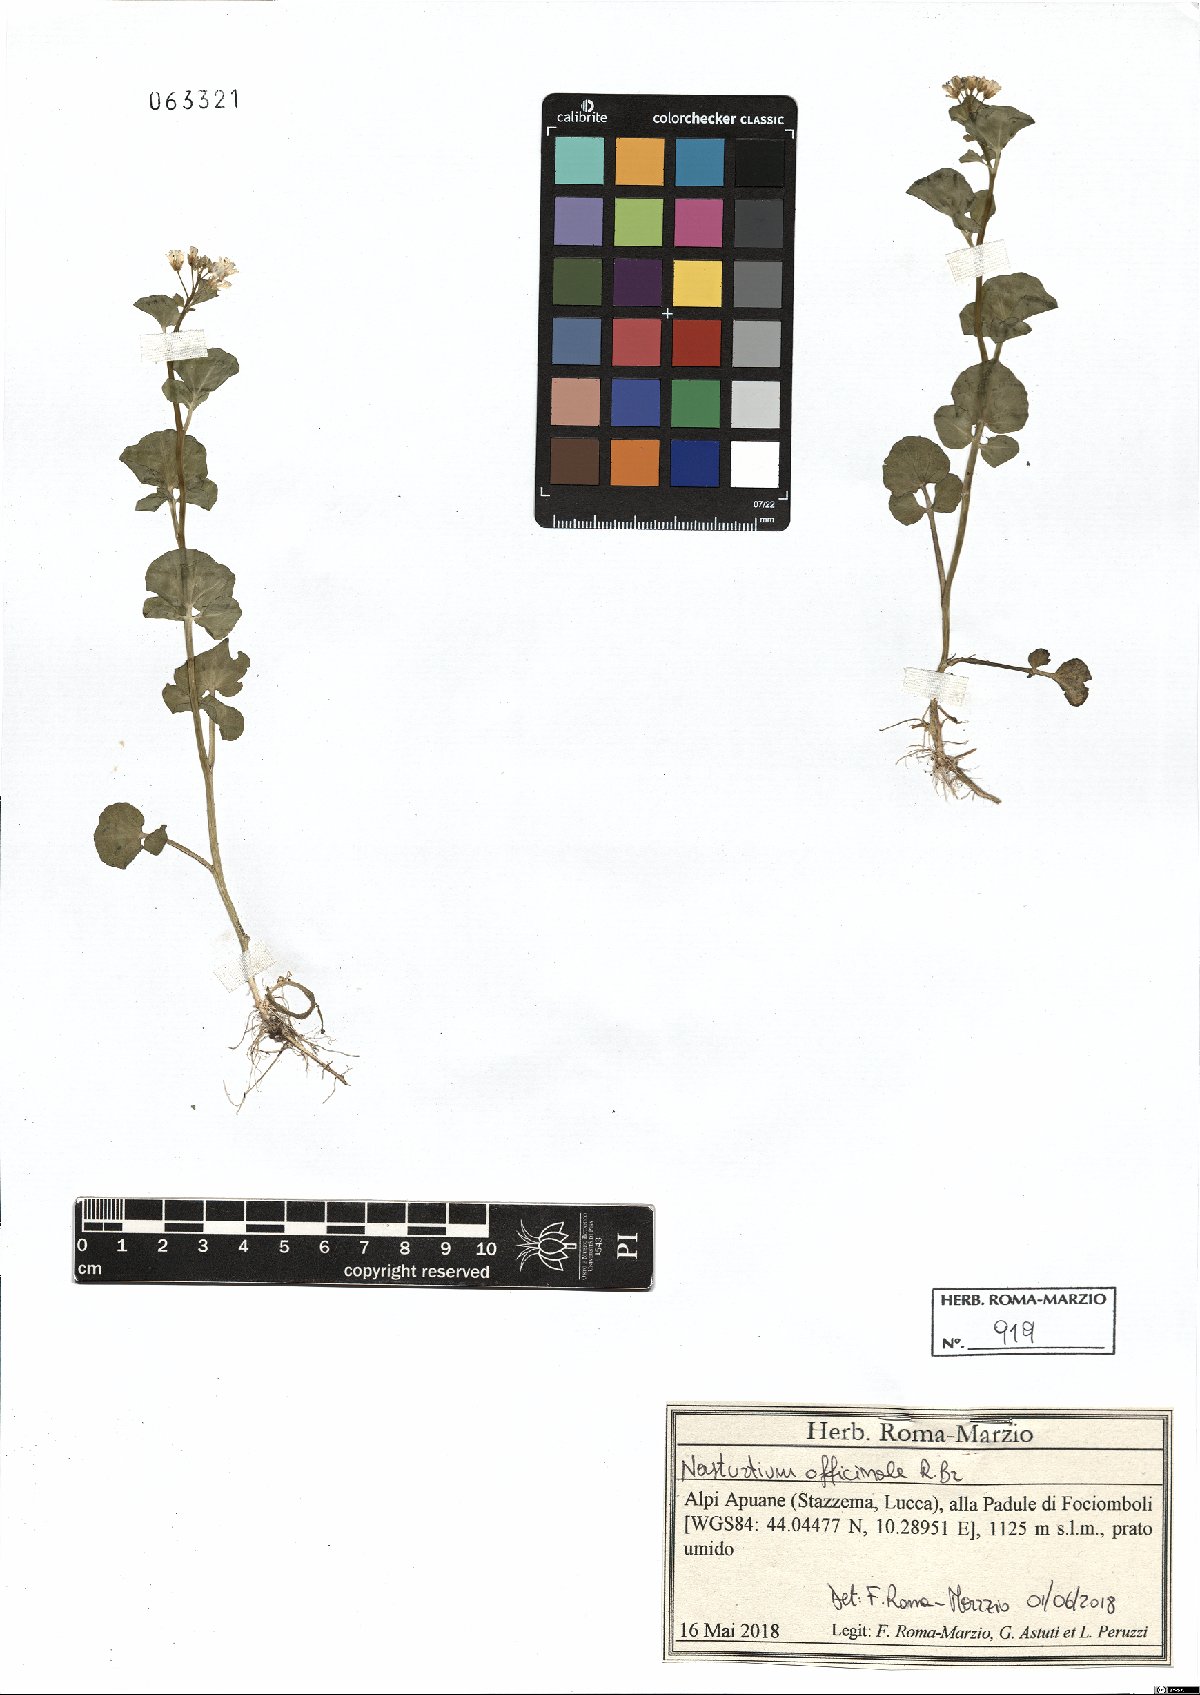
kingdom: Plantae
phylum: Tracheophyta
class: Magnoliopsida
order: Brassicales
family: Brassicaceae
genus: Nasturtium
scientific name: Nasturtium officinale
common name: Watercress
